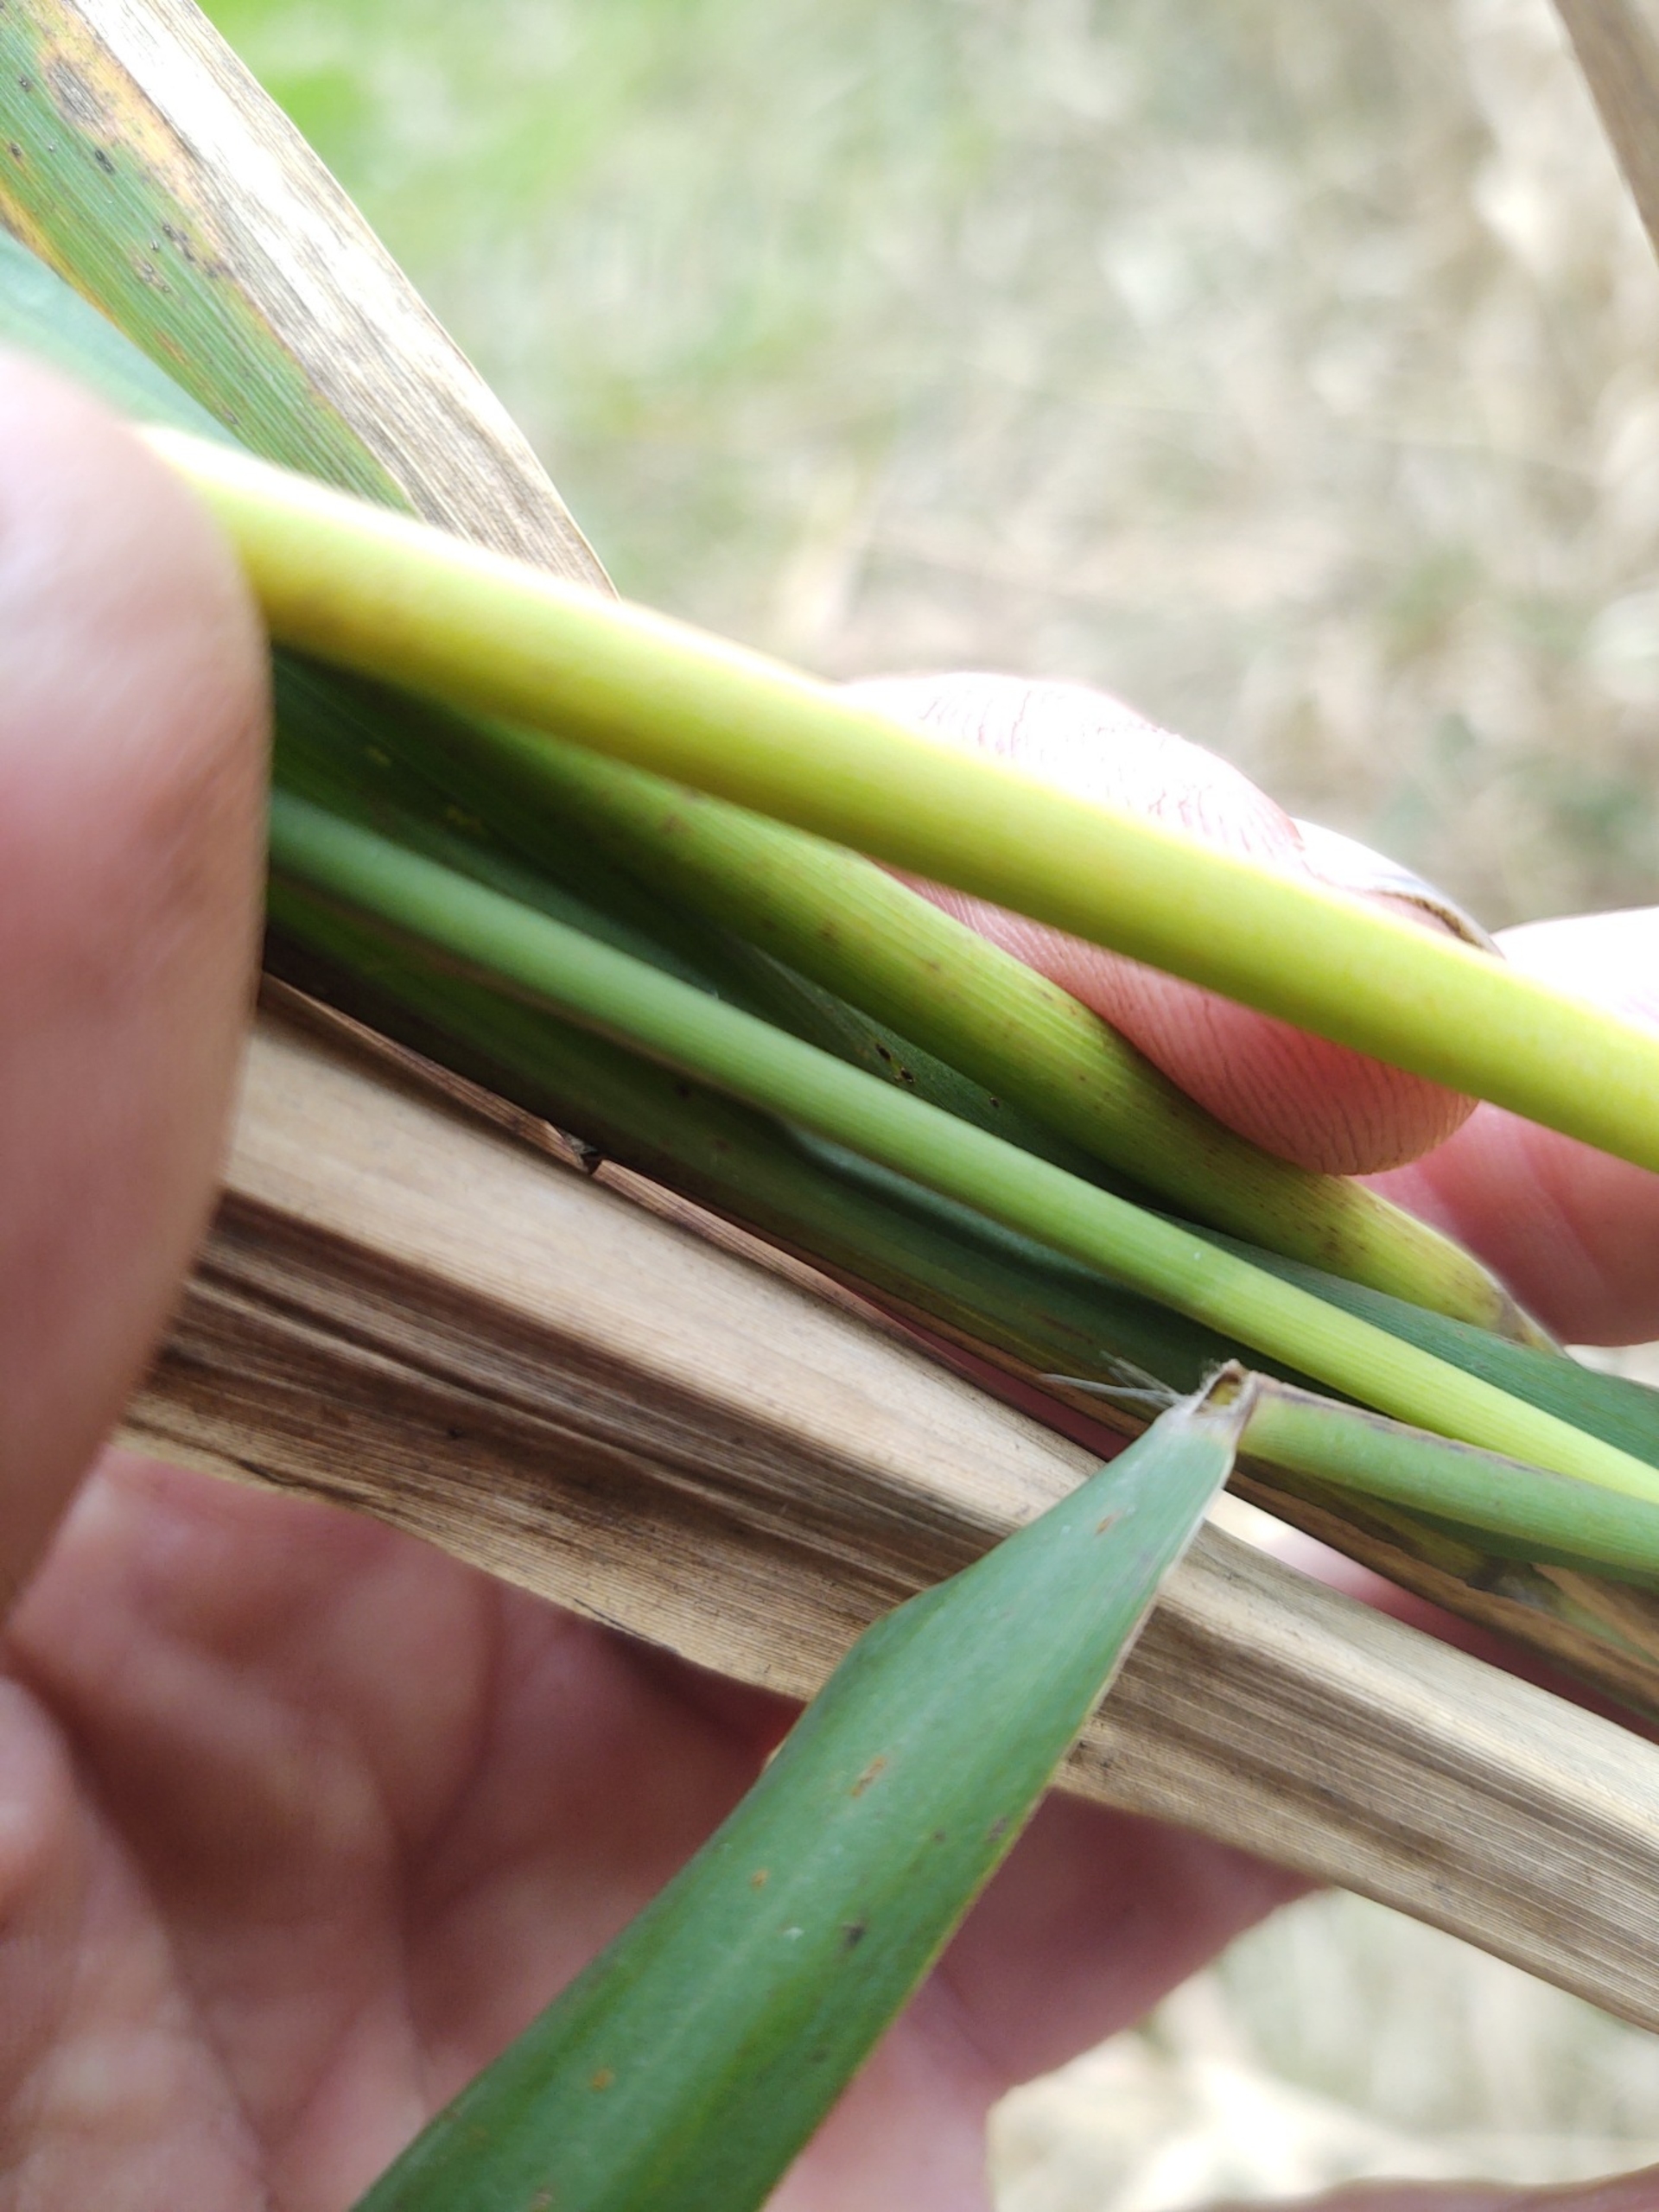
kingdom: Plantae
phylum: Tracheophyta
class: Liliopsida
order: Poales
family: Poaceae
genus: Phragmites
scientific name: Phragmites australis
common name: Tagrør
